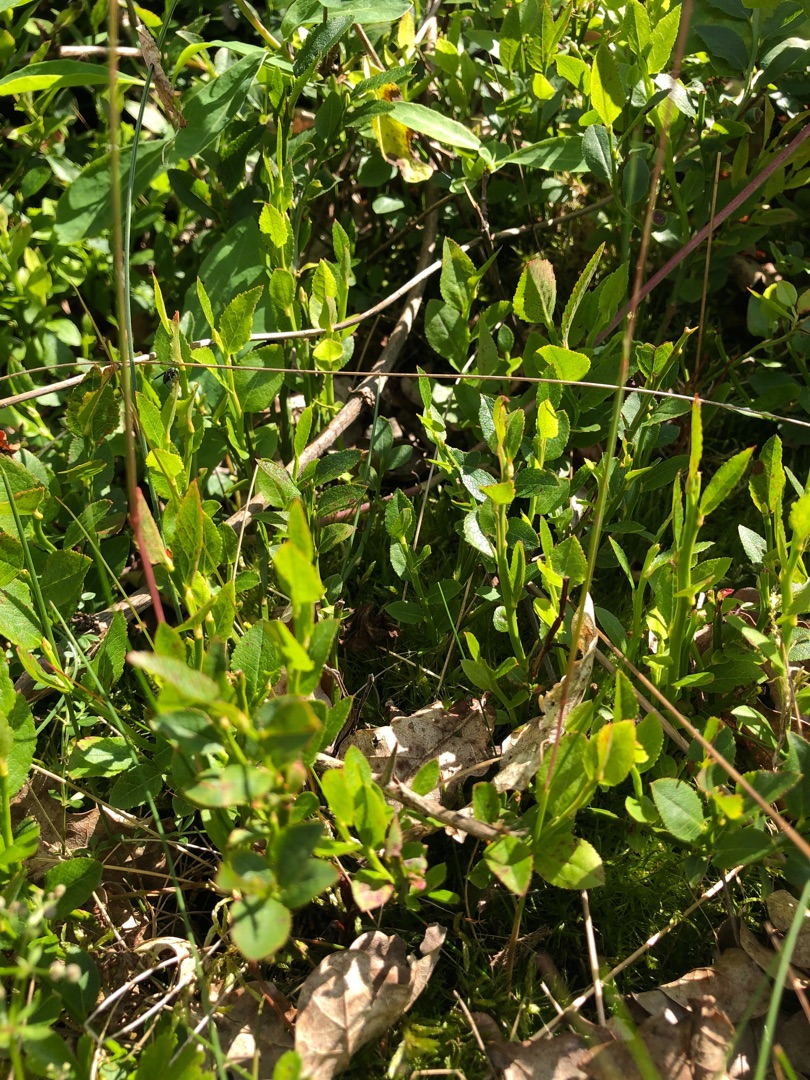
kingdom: Plantae
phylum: Tracheophyta
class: Magnoliopsida
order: Ericales
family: Ericaceae
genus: Vaccinium
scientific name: Vaccinium myrtillus
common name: Blåbær
